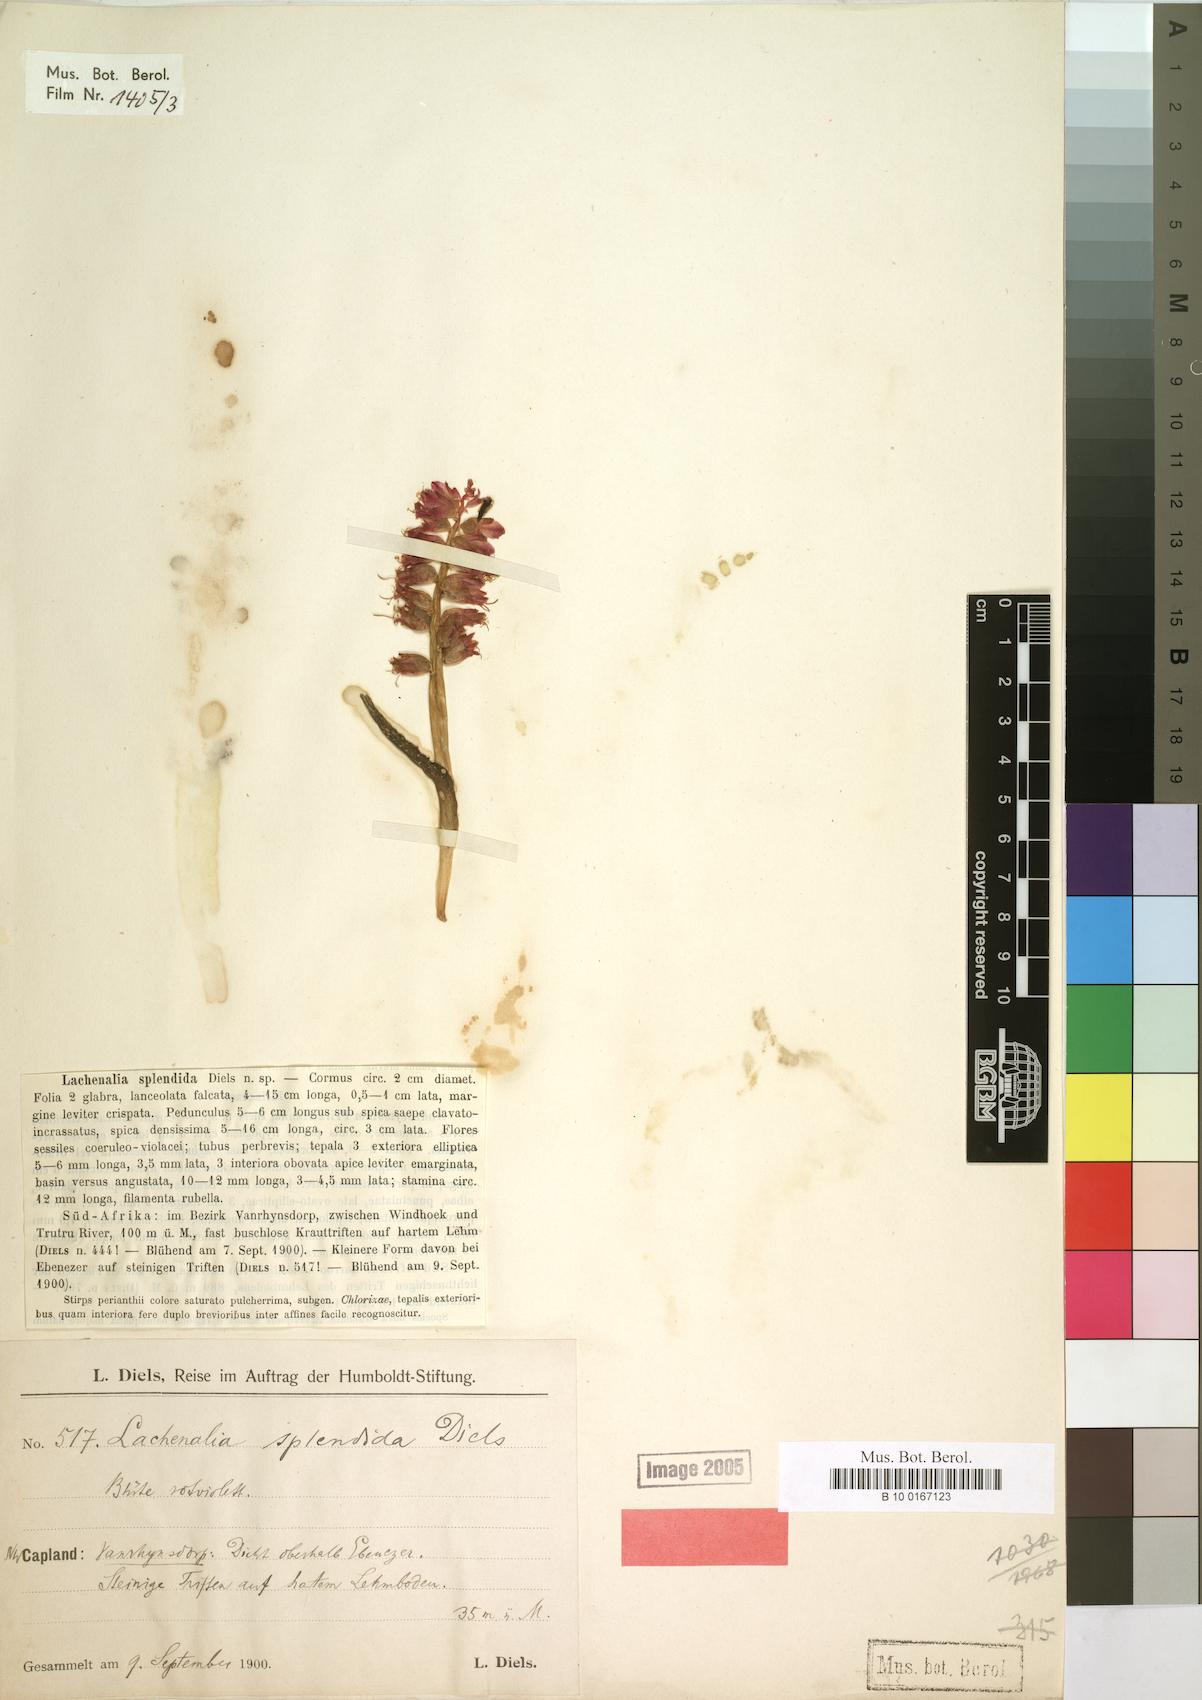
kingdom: Plantae
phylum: Tracheophyta
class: Liliopsida
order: Asparagales
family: Asparagaceae
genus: Lachenalia
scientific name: Lachenalia splendida
